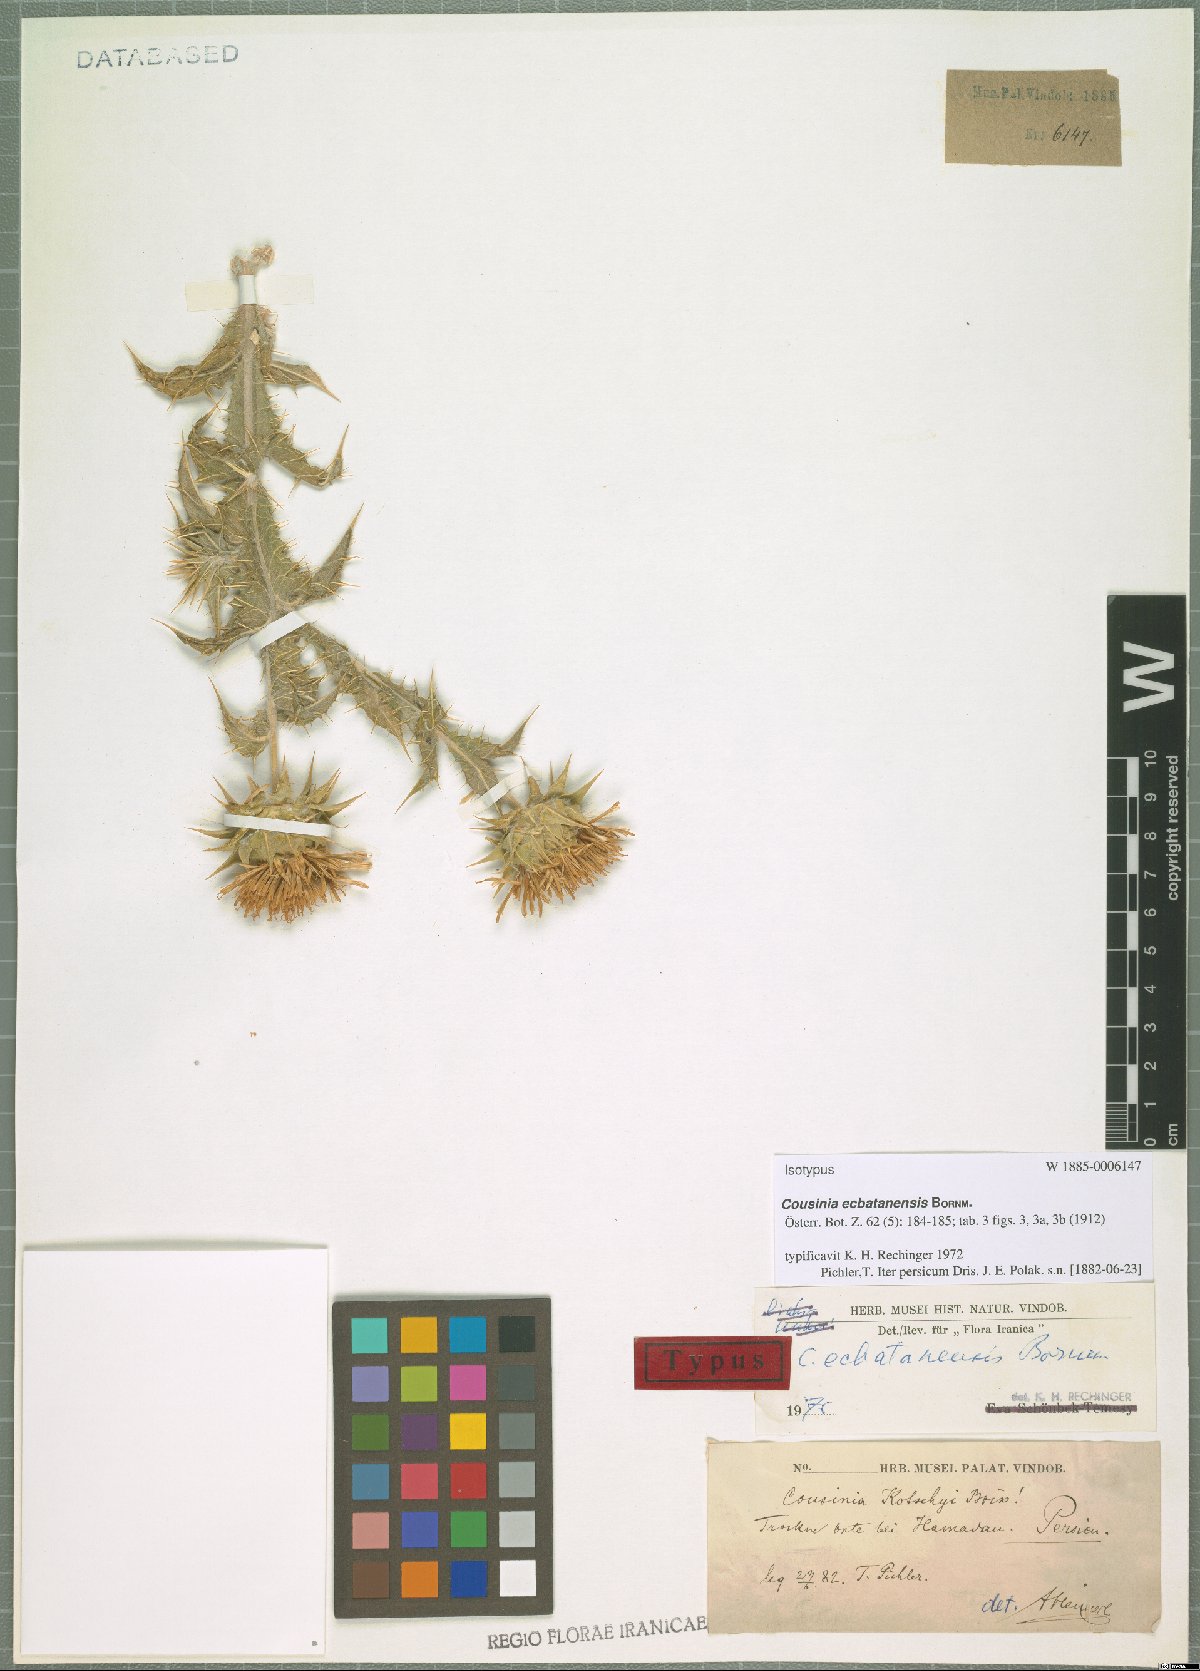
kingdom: Plantae
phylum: Tracheophyta
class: Magnoliopsida
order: Asterales
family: Asteraceae
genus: Cousinia
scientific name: Cousinia kornhuberi
